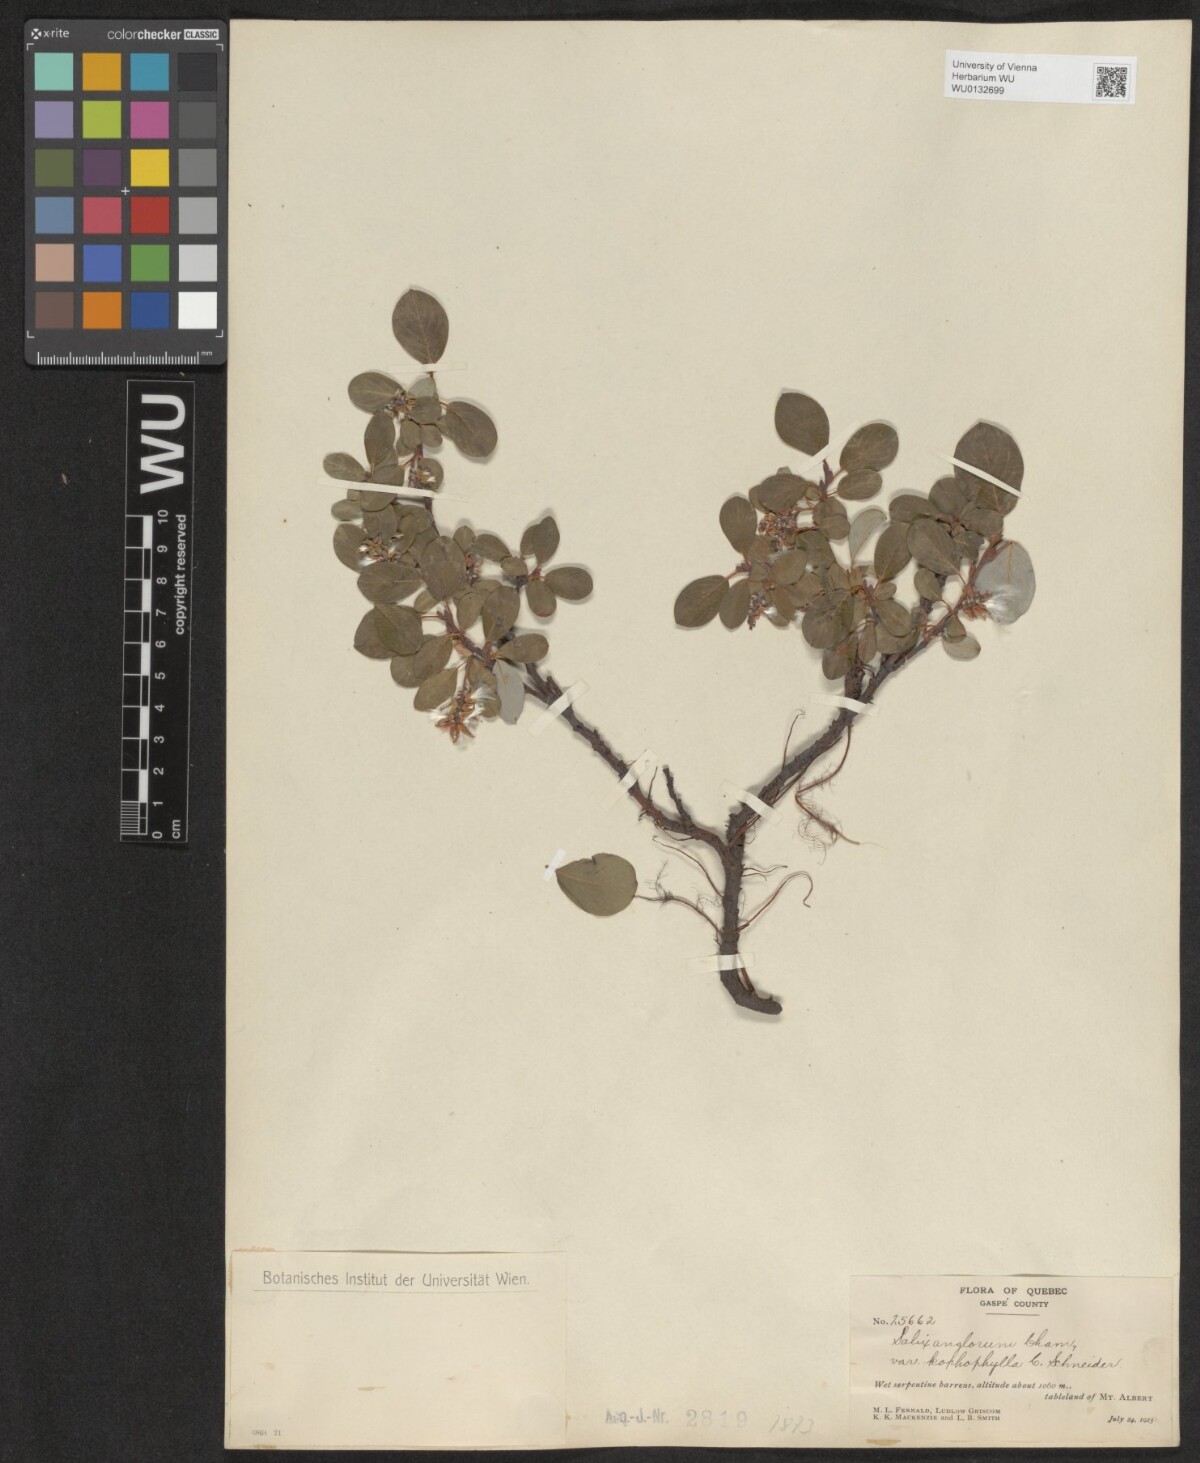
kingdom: Plantae
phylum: Tracheophyta
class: Magnoliopsida
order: Malpighiales
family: Salicaceae
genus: Salix
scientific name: Salix arctica
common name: Arctic willow
